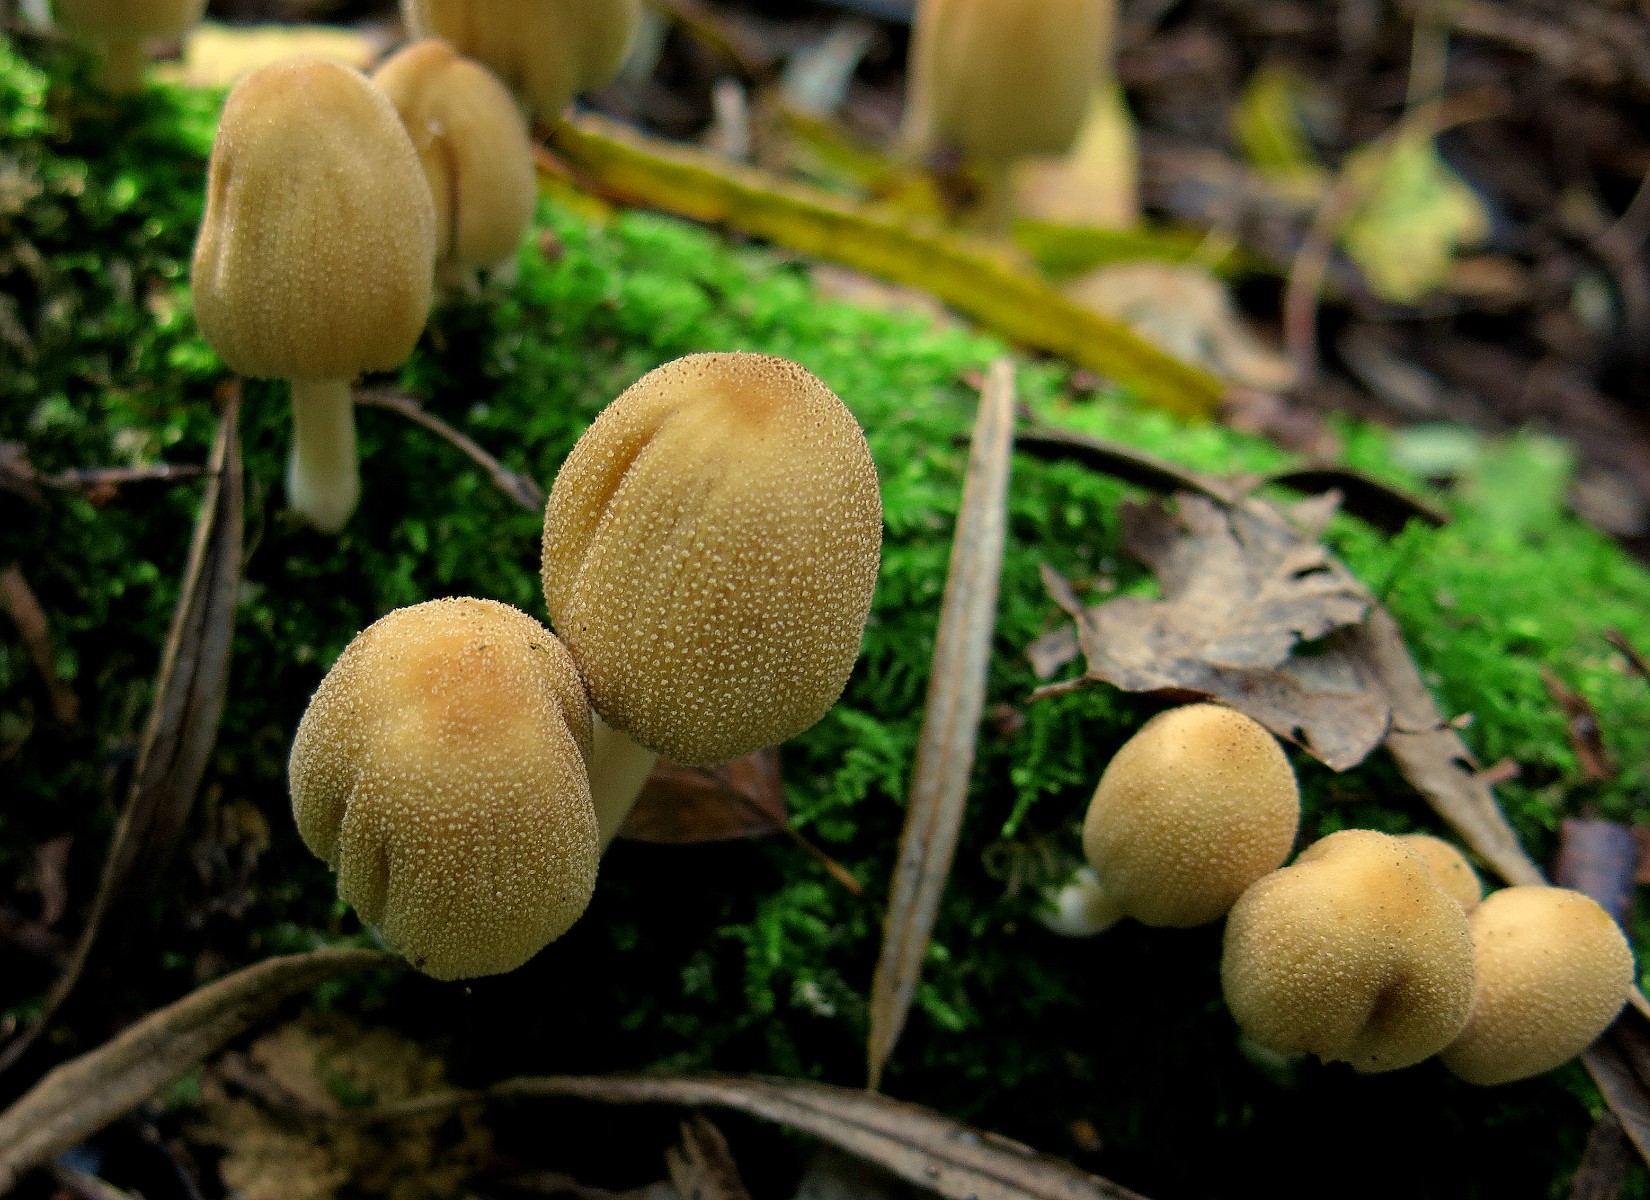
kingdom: Fungi
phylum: Basidiomycota
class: Agaricomycetes
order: Agaricales
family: Psathyrellaceae
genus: Coprinellus
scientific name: Coprinellus micaceus
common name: glimmer-blækhat
